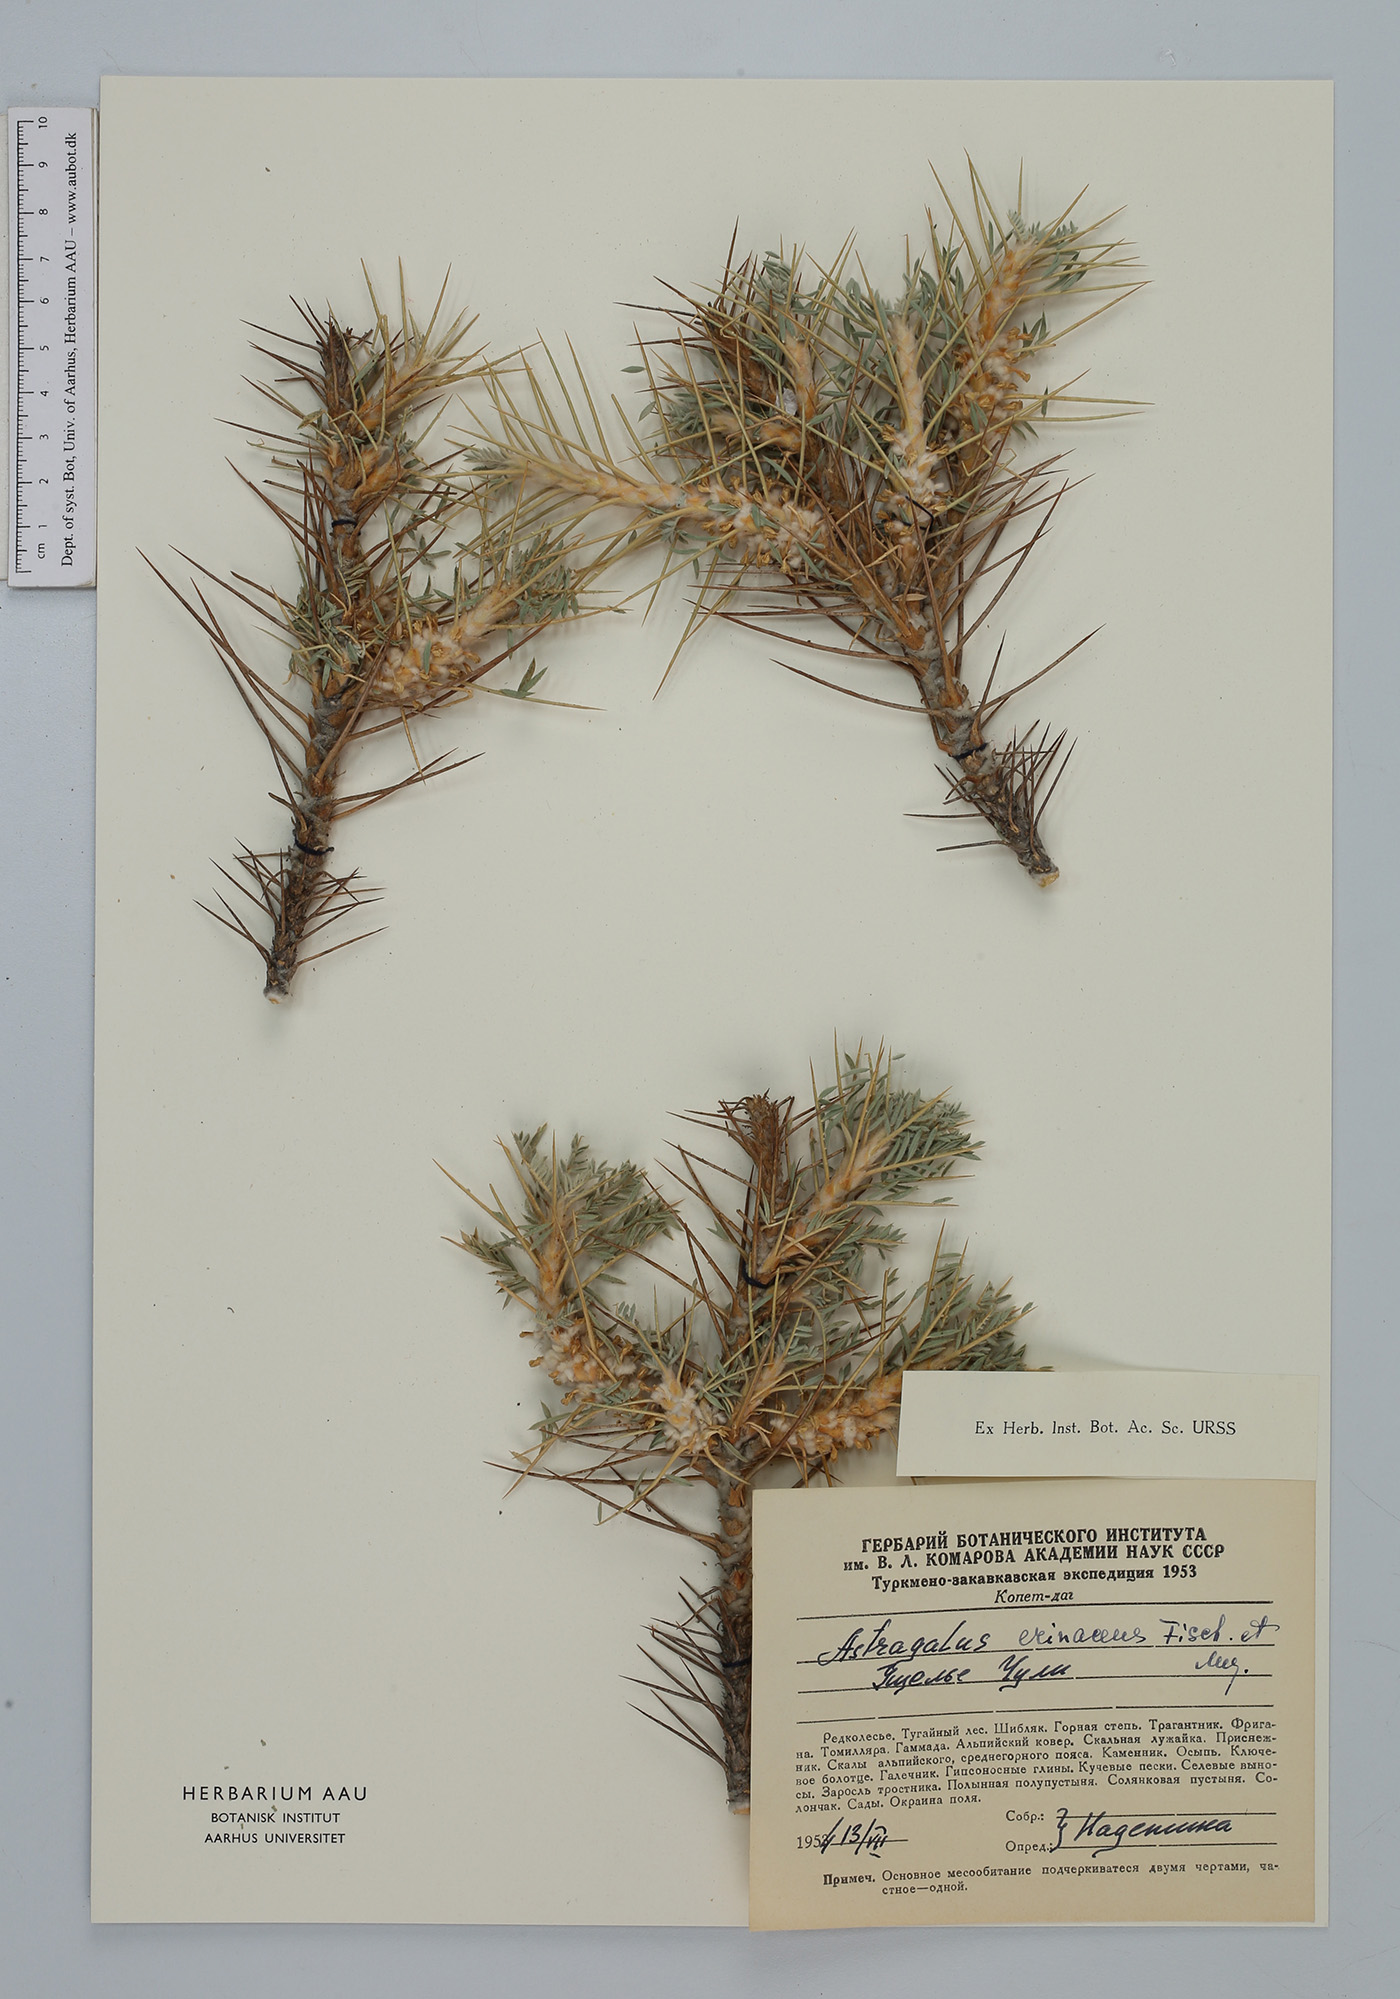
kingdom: Plantae
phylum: Tracheophyta
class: Magnoliopsida
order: Fabales
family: Fabaceae
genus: Astragalus
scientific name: Astragalus microcephalus
